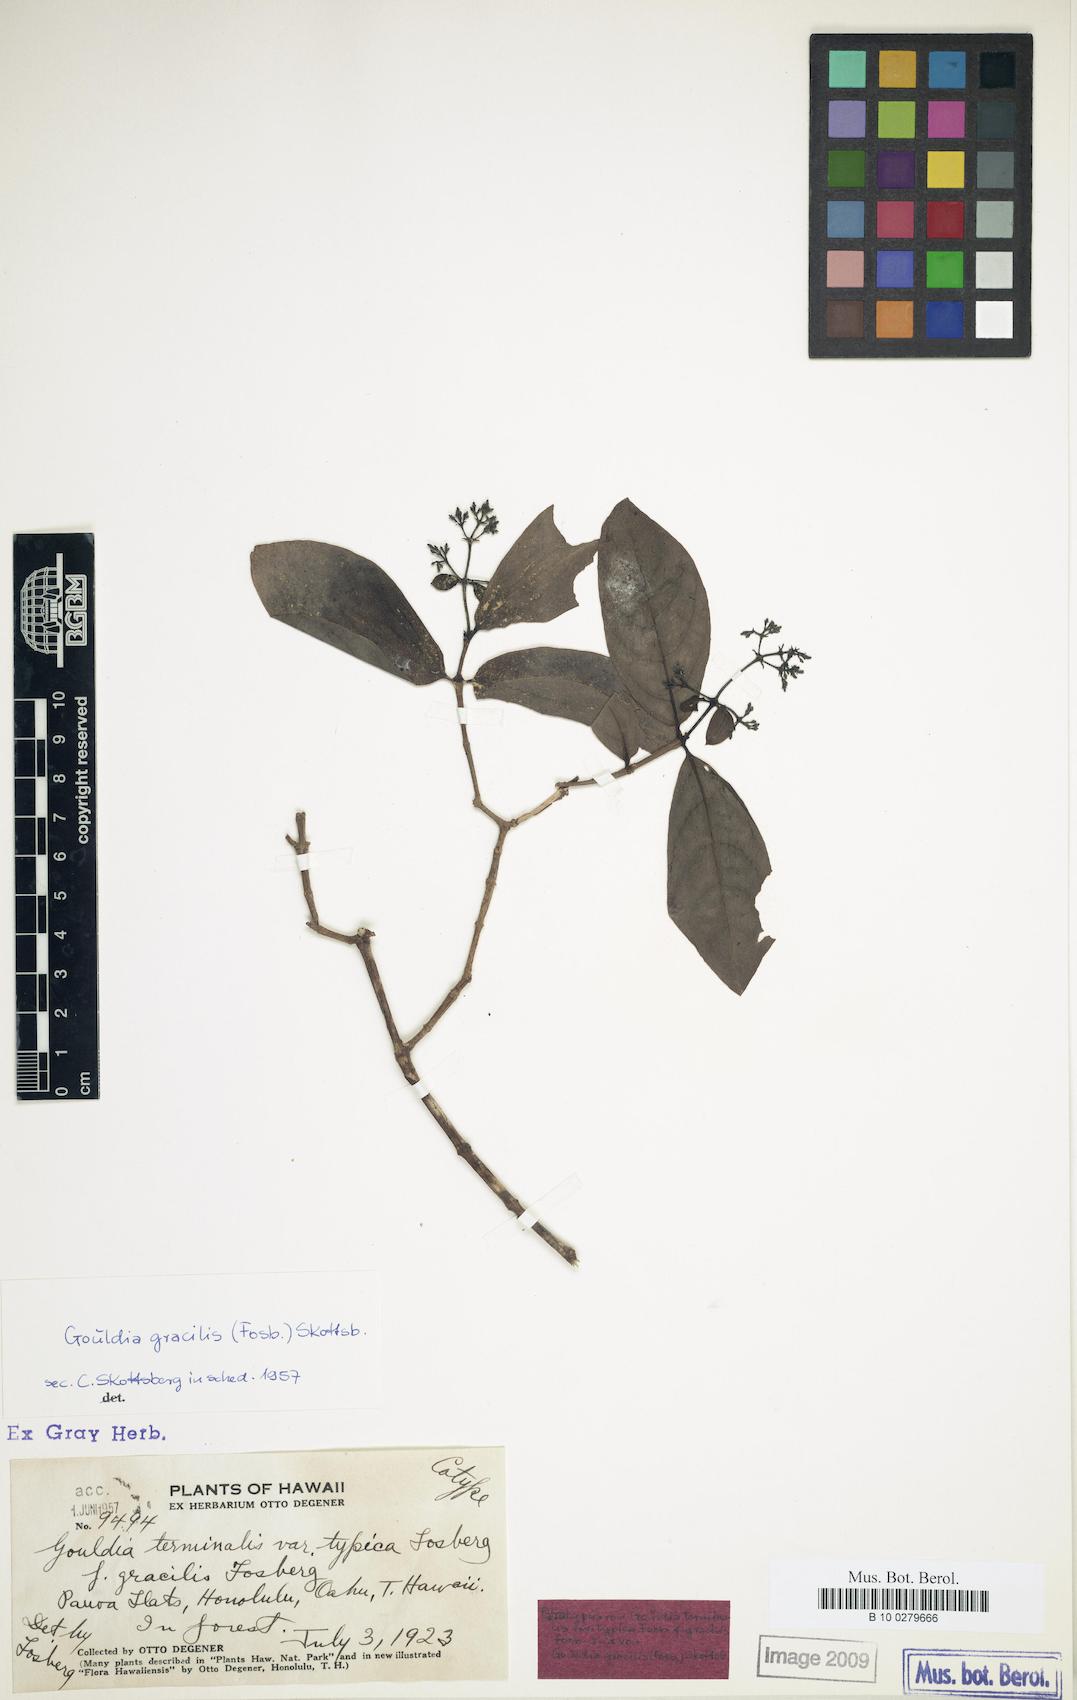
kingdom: Plantae
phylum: Tracheophyta
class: Magnoliopsida
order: Gentianales
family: Rubiaceae
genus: Kadua
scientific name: Kadua affinis
